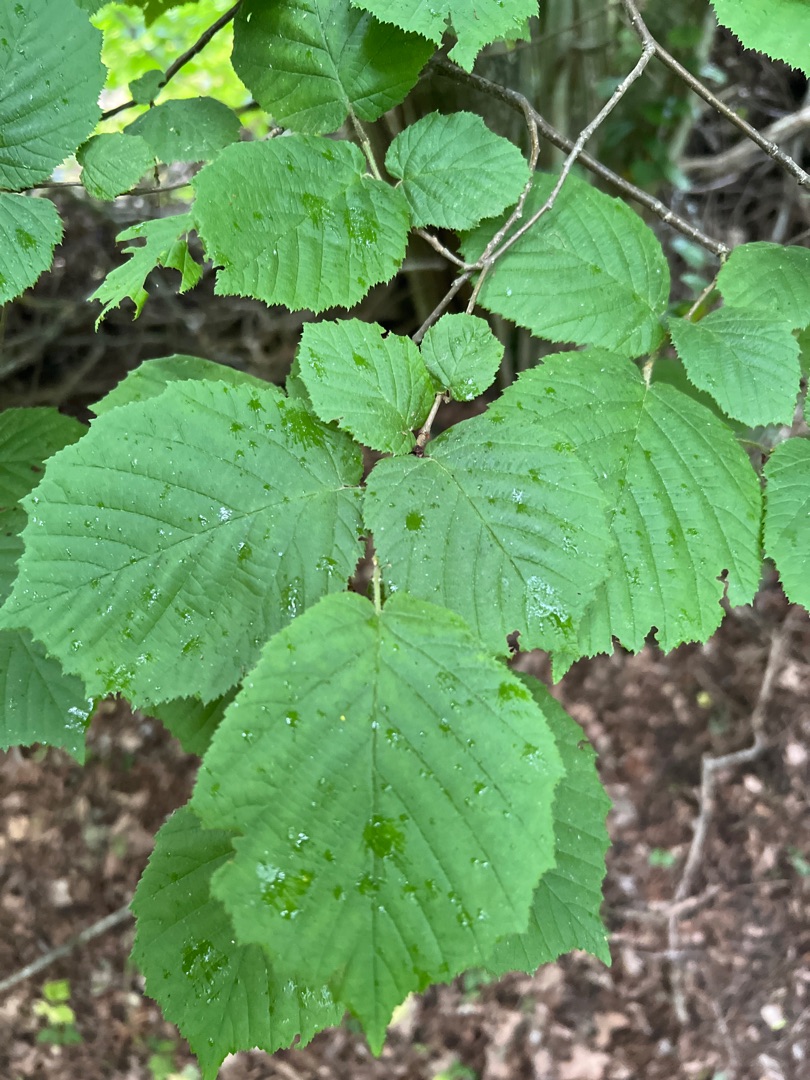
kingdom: Plantae
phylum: Tracheophyta
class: Magnoliopsida
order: Fagales
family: Betulaceae
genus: Corylus
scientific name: Corylus avellana
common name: Hassel
